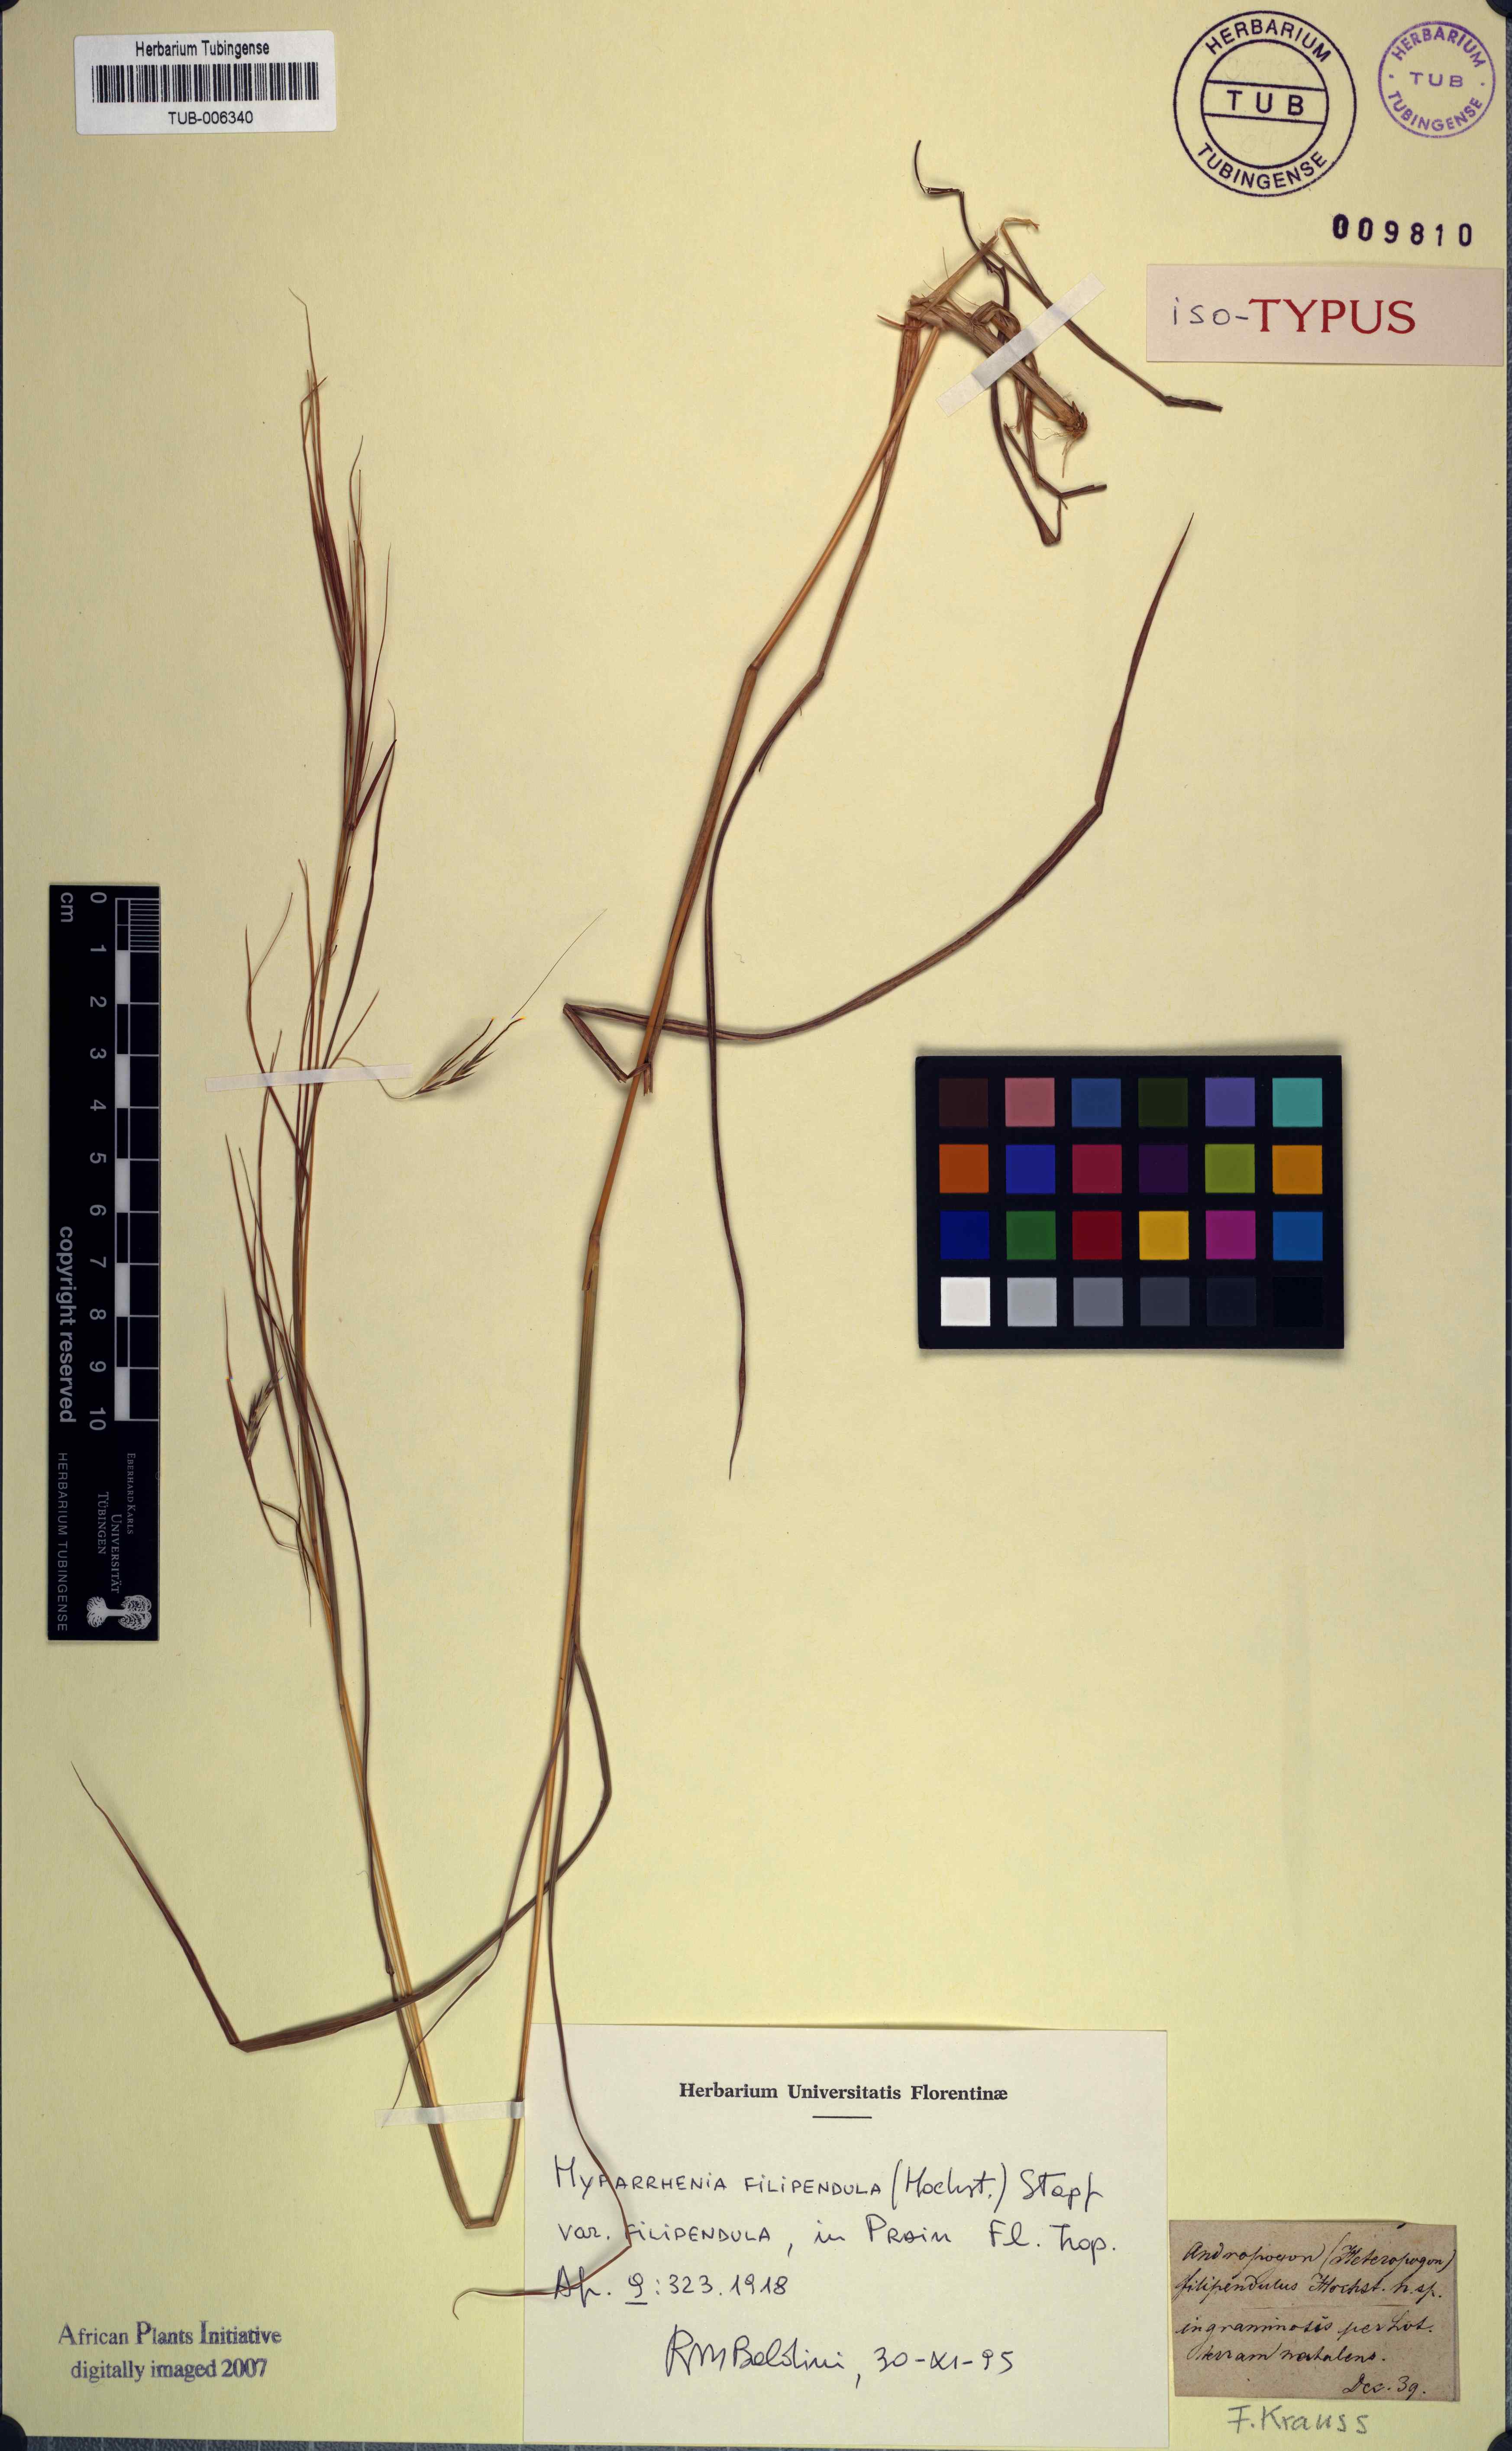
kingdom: Plantae
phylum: Tracheophyta
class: Liliopsida
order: Poales
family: Poaceae
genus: Hyparrhenia
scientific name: Hyparrhenia filipendula
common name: Tambookie grass
